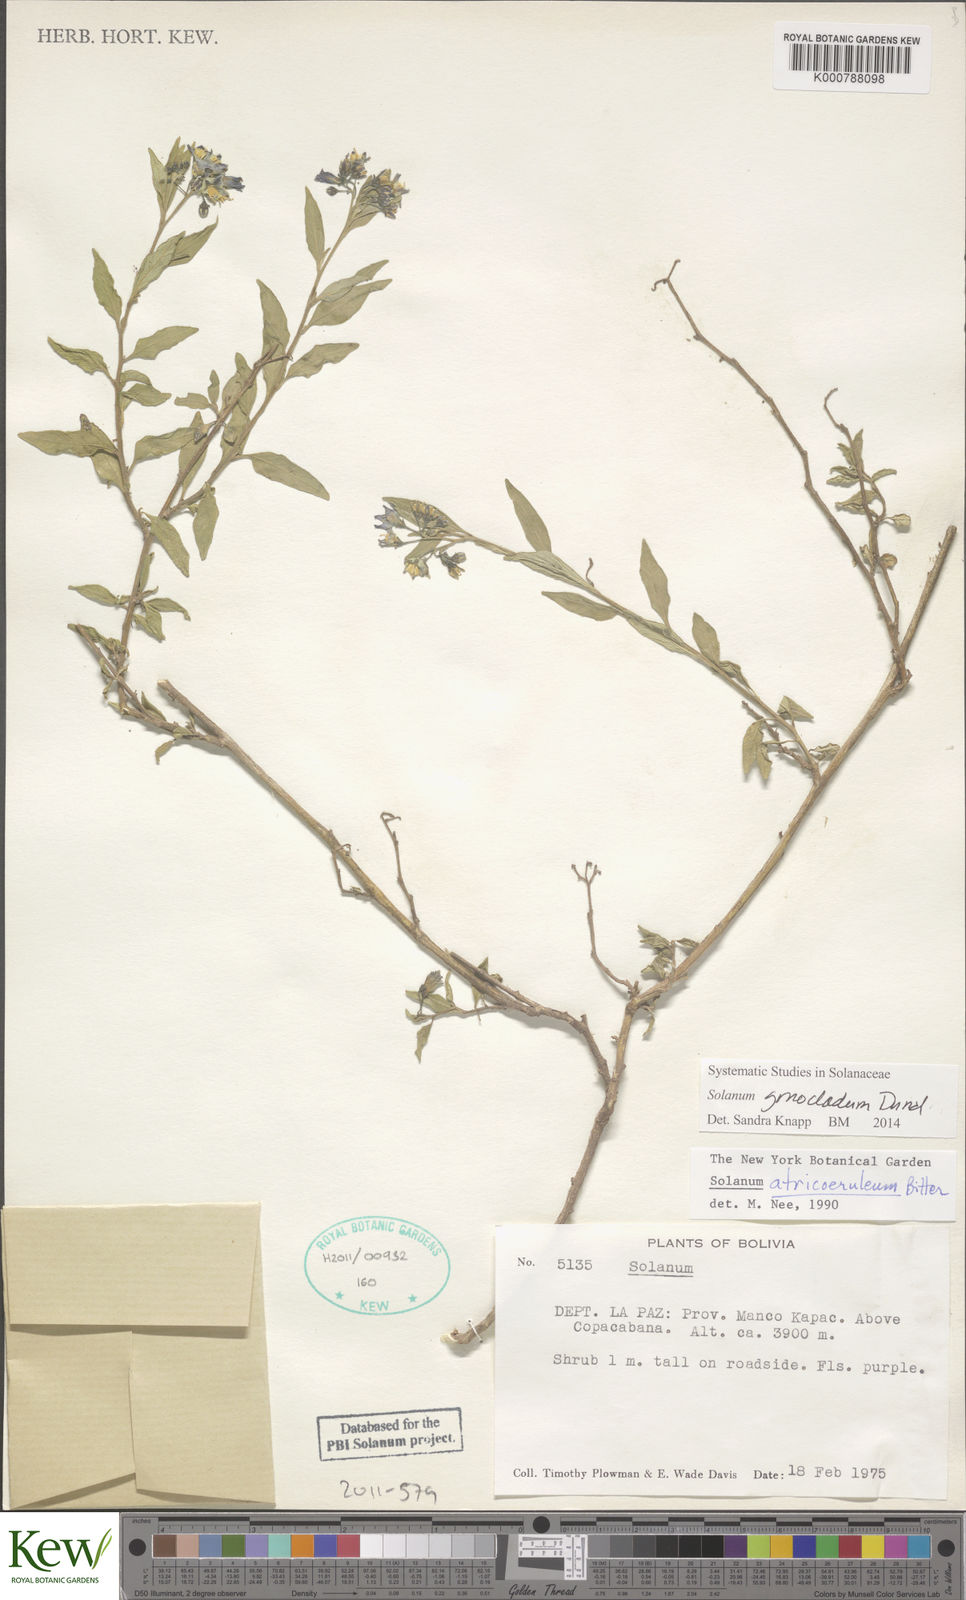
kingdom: Plantae
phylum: Tracheophyta
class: Magnoliopsida
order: Solanales
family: Solanaceae
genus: Solanum
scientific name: Solanum gonocladum
